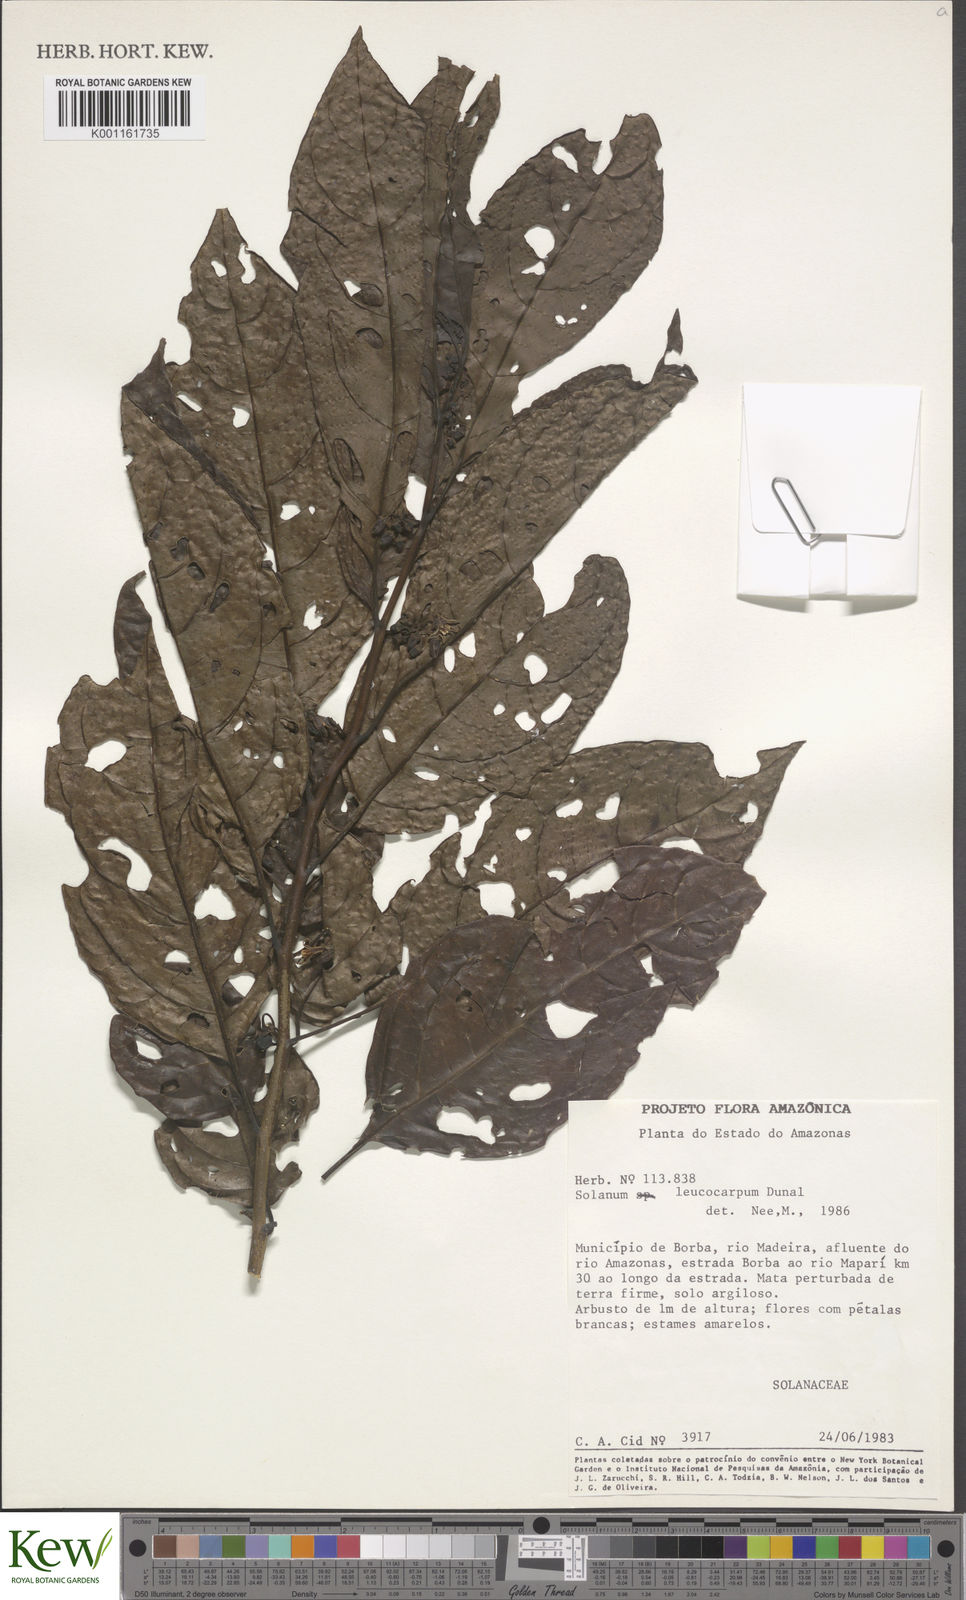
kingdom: Plantae
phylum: Tracheophyta
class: Magnoliopsida
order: Solanales
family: Solanaceae
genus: Solanum
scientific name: Solanum leucocarpon
